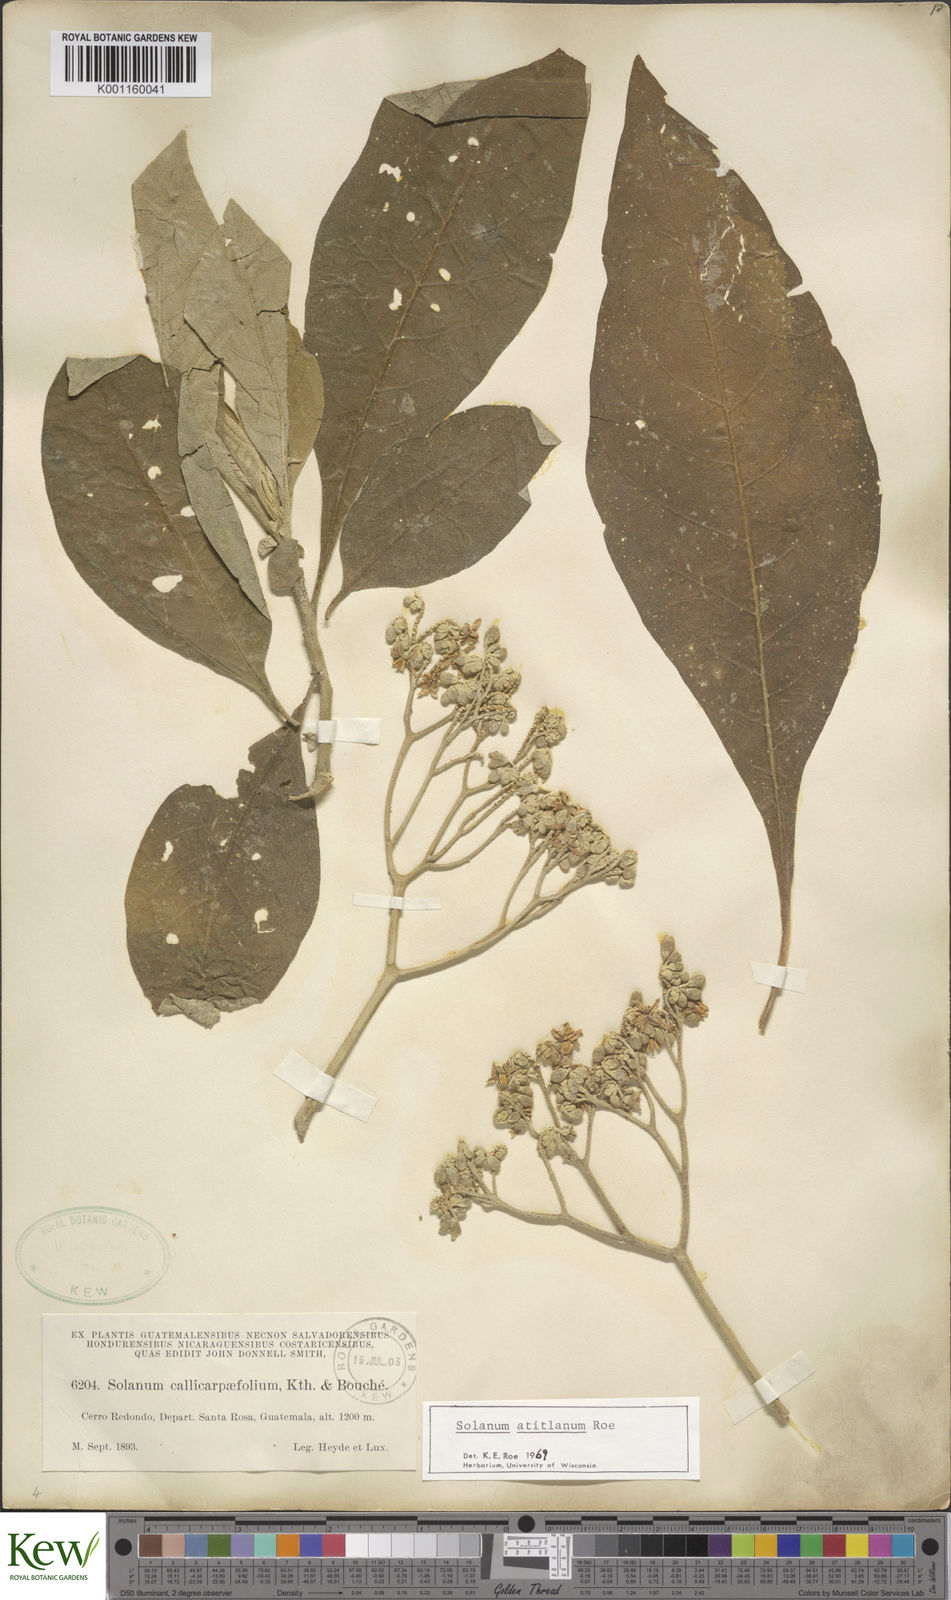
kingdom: Plantae
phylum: Tracheophyta
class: Magnoliopsida
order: Solanales
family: Solanaceae
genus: Solanum
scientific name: Solanum atitlanum
